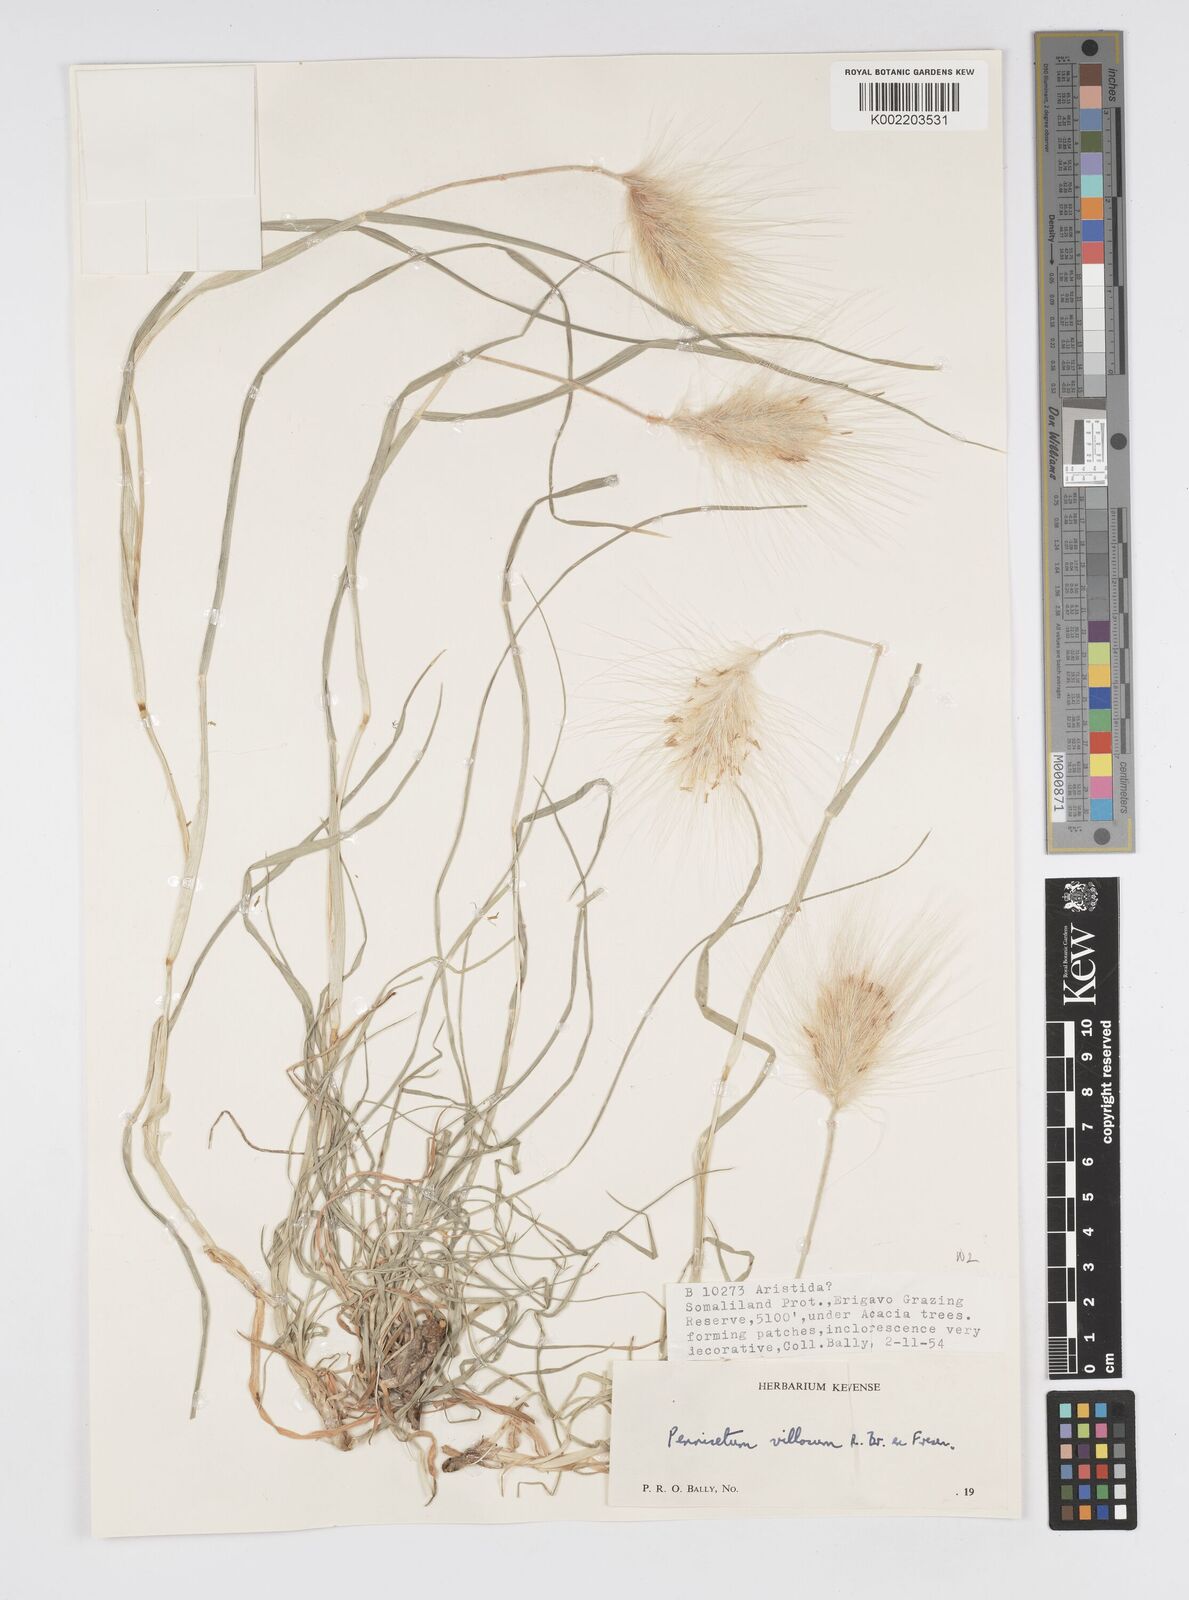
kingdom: Plantae
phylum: Tracheophyta
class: Liliopsida
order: Poales
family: Poaceae
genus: Cenchrus
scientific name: Cenchrus longisetus
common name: Feathertop
